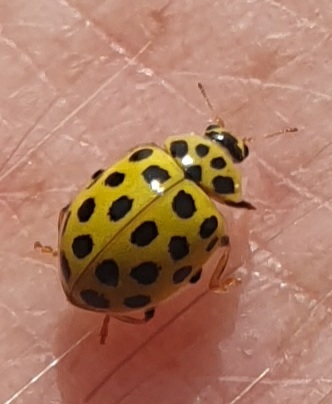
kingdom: Animalia
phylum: Arthropoda
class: Insecta
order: Coleoptera
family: Coccinellidae
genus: Psyllobora
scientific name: Psyllobora vigintiduopunctata
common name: Toogtyveplettet mariehøne
